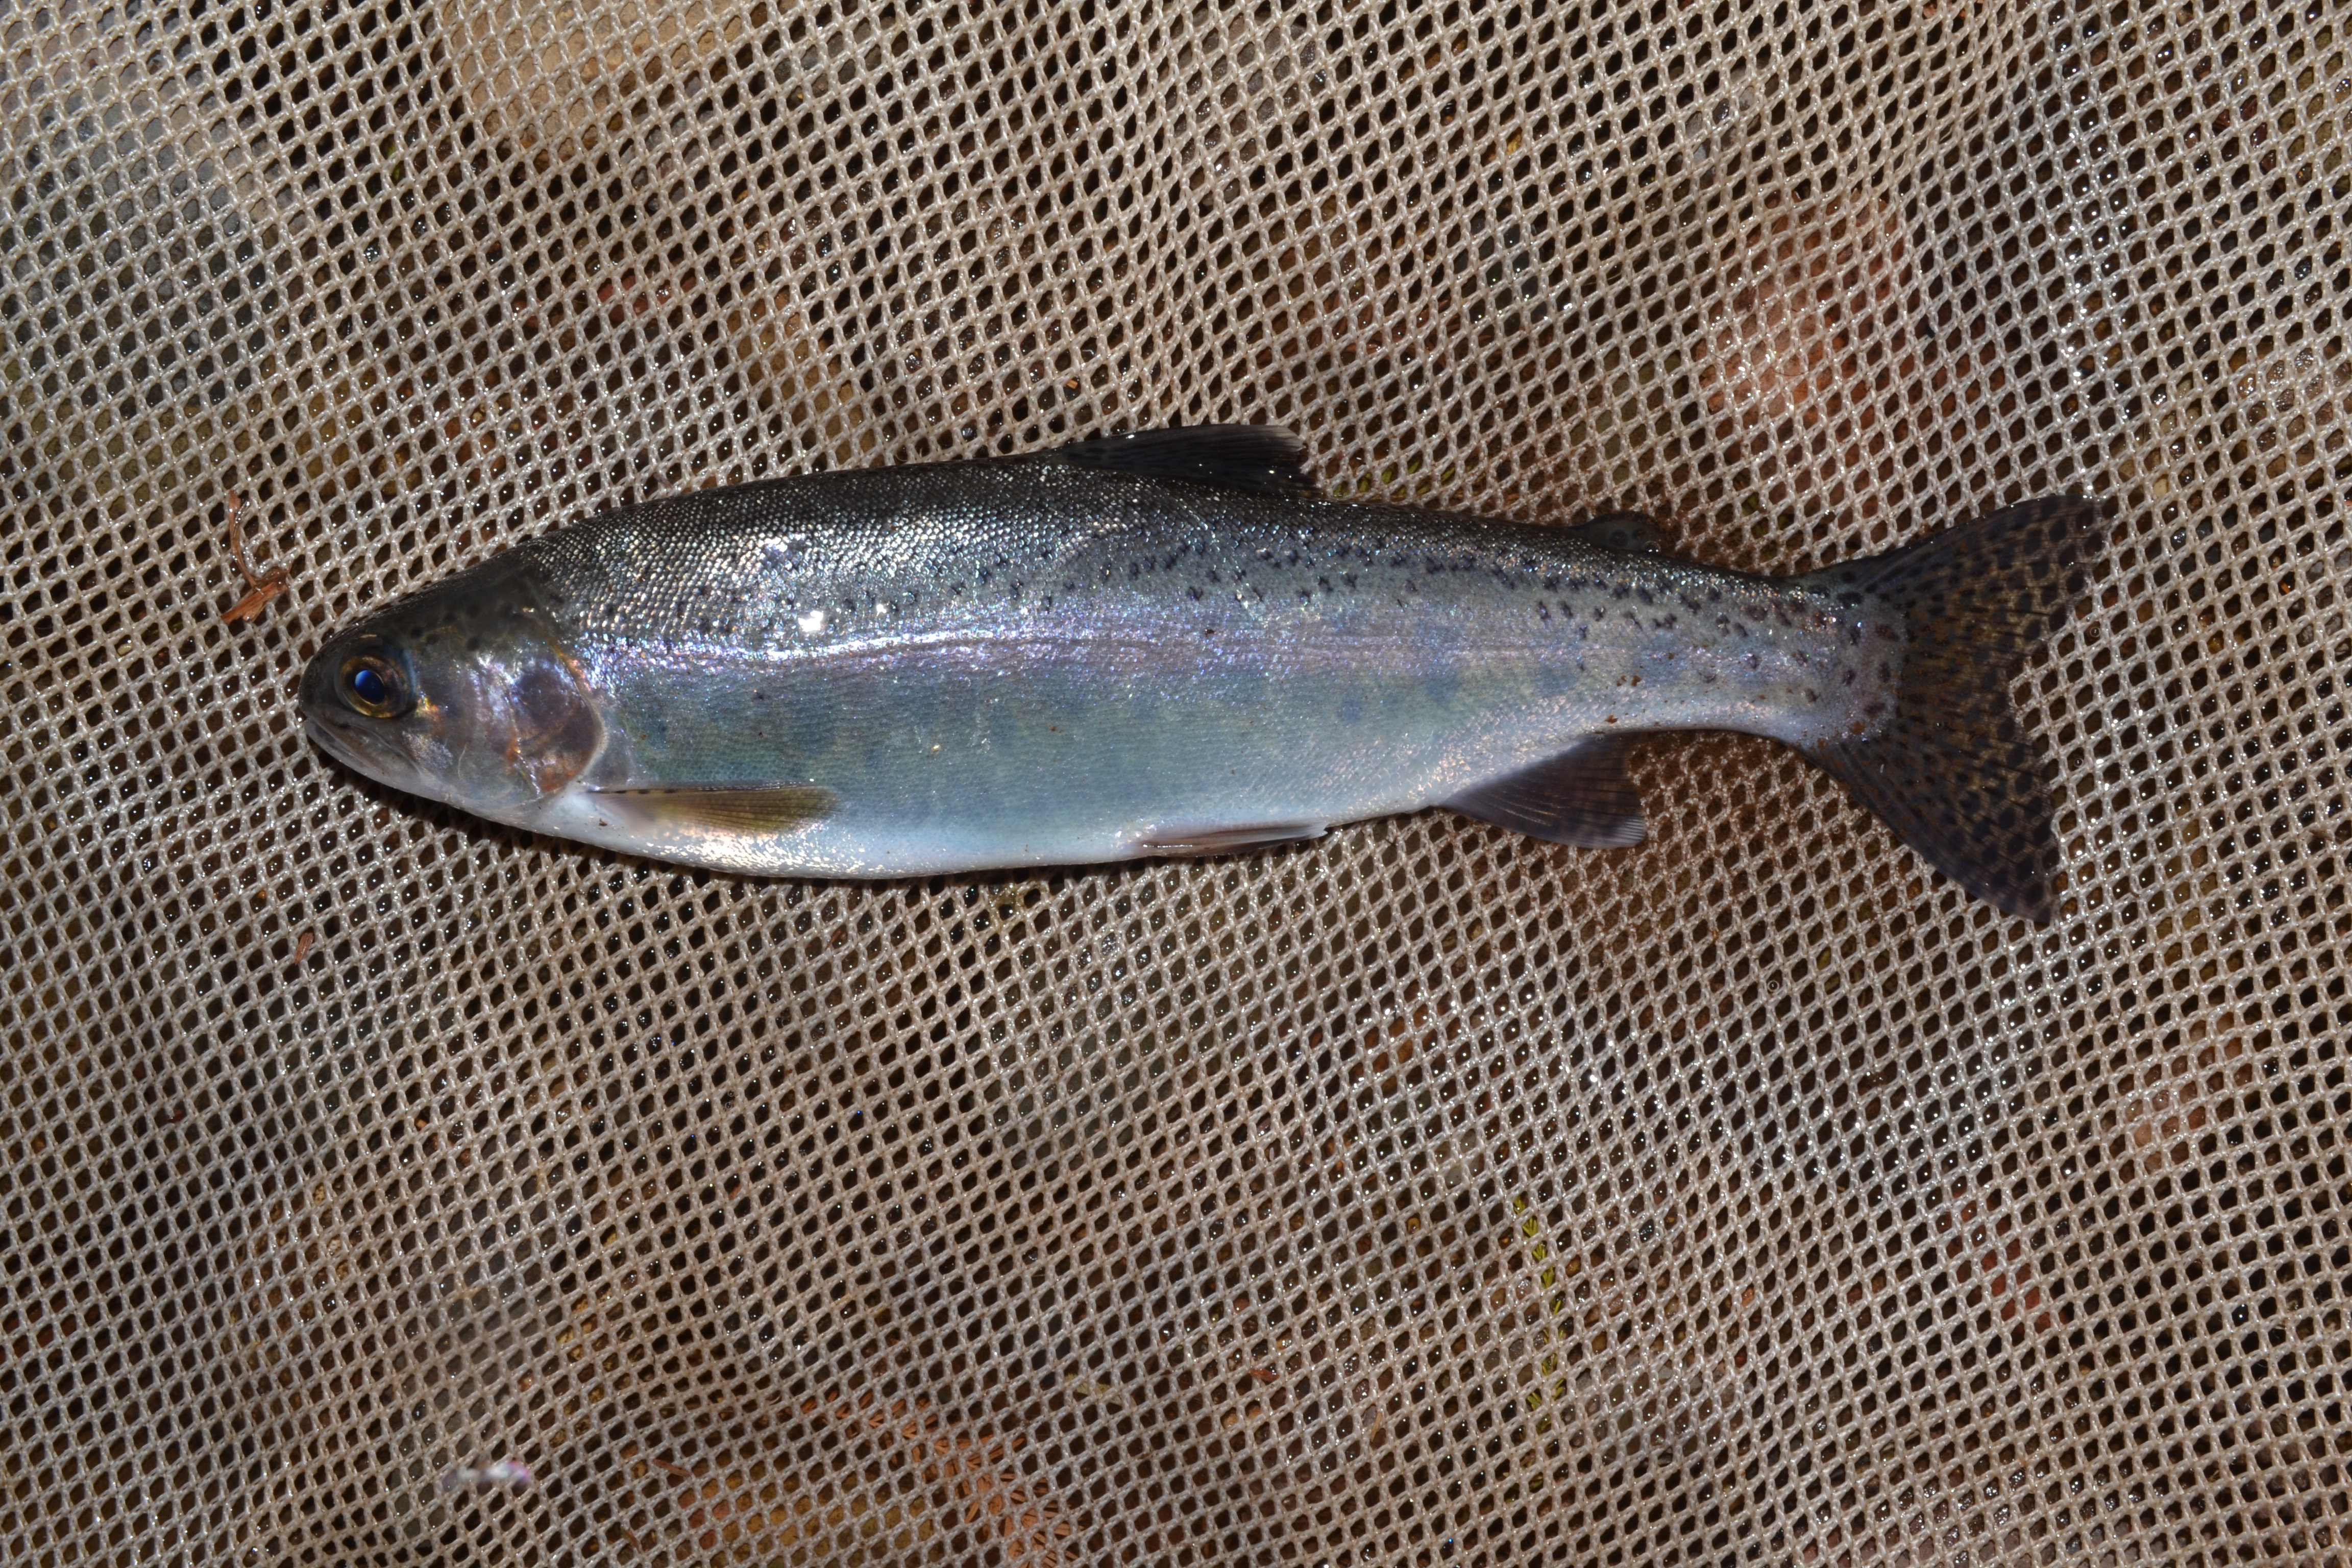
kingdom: Animalia
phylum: Chordata
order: Salmoniformes
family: Salmonidae
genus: Oncorhynchus
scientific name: Oncorhynchus mykiss
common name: Rainbow trout
